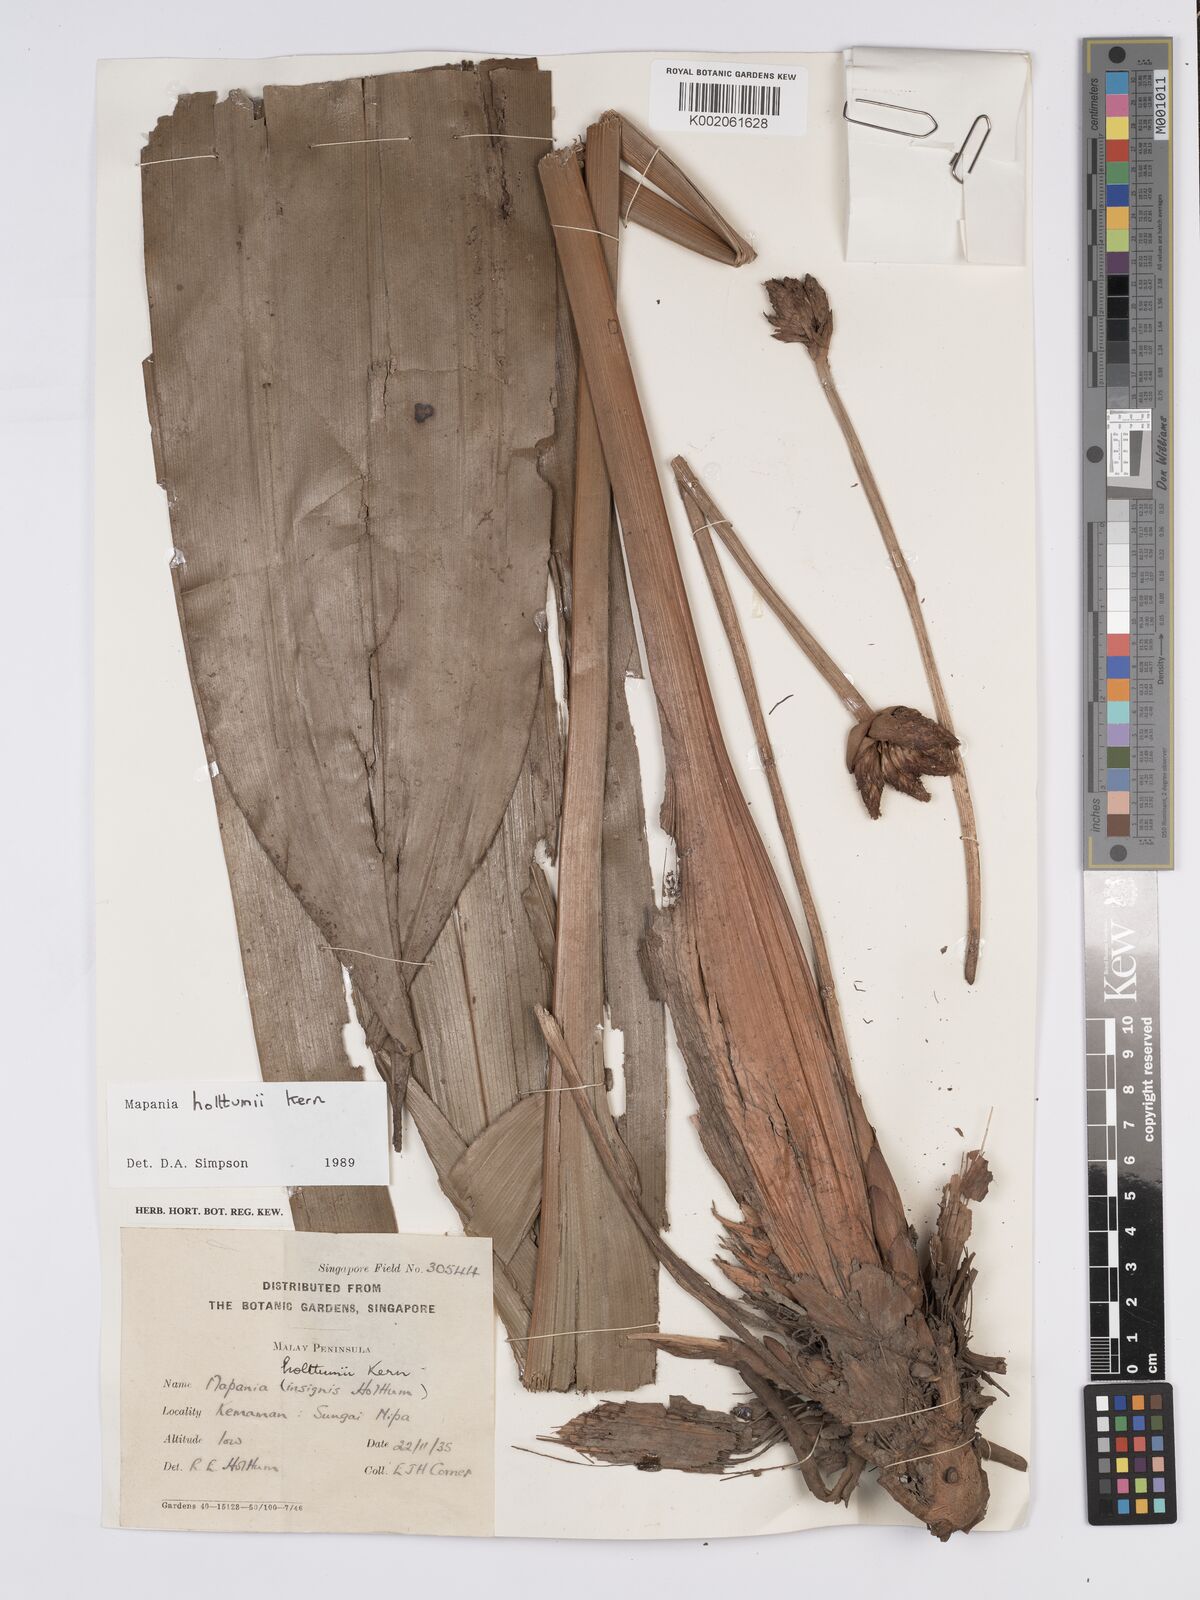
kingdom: Plantae
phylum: Tracheophyta
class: Liliopsida
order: Poales
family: Cyperaceae
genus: Mapania
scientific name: Mapania holttumii
